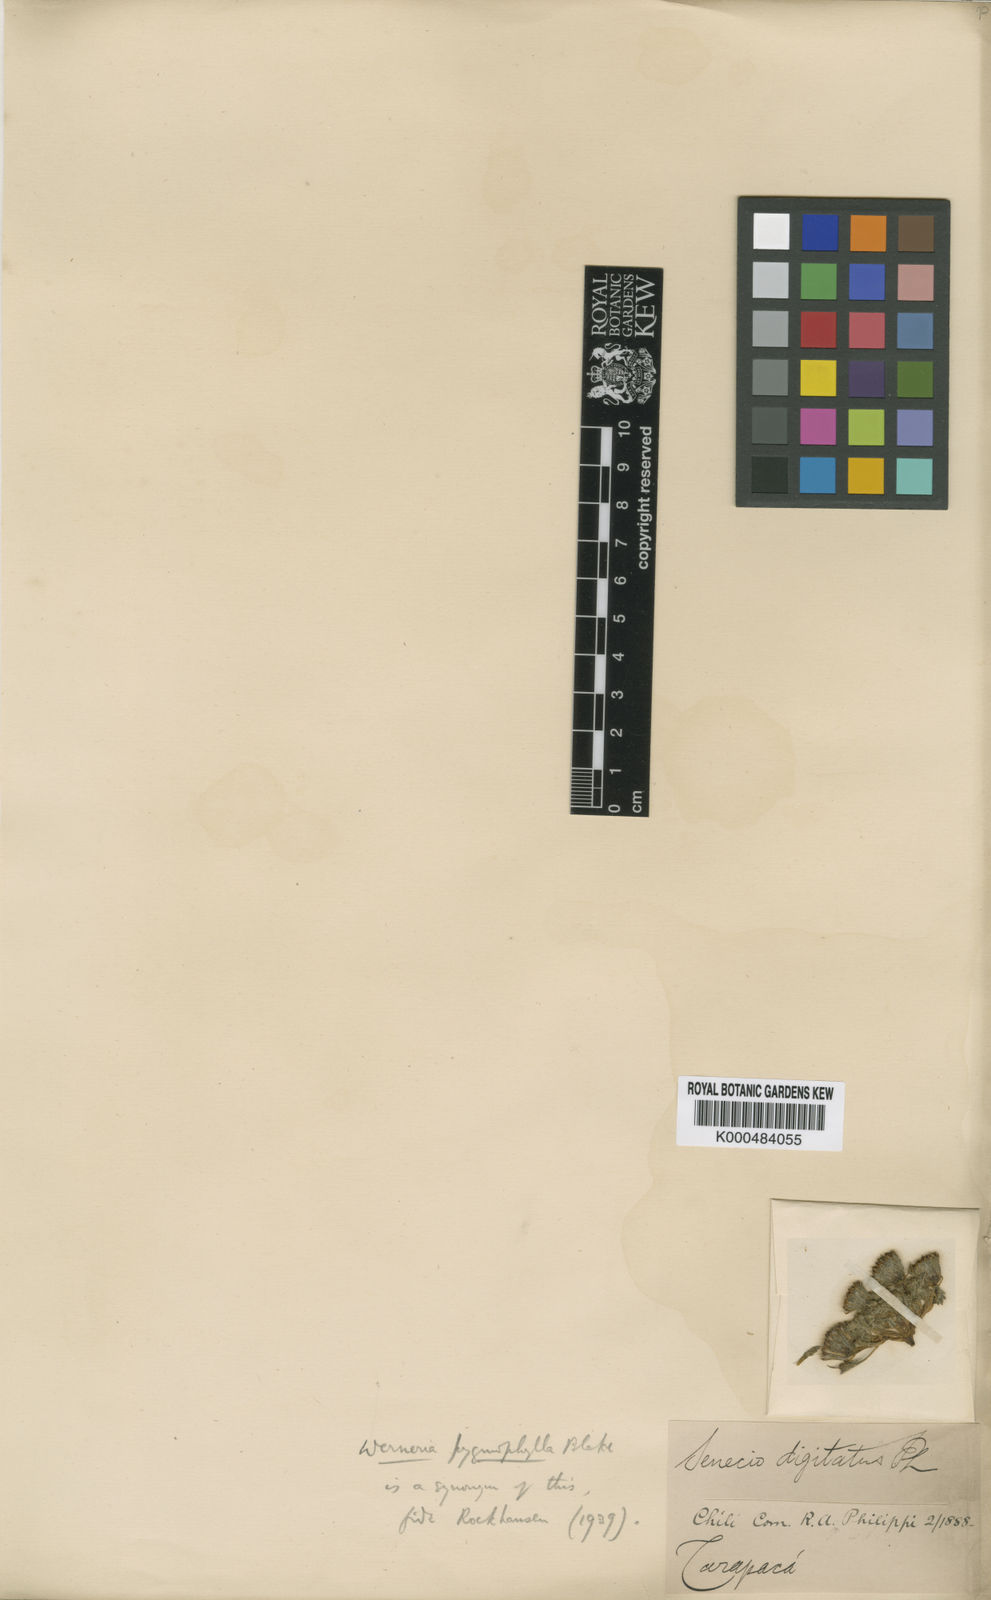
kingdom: Plantae
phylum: Tracheophyta
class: Magnoliopsida
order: Asterales
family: Asteraceae
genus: Senecio
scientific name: Senecio digitatus
